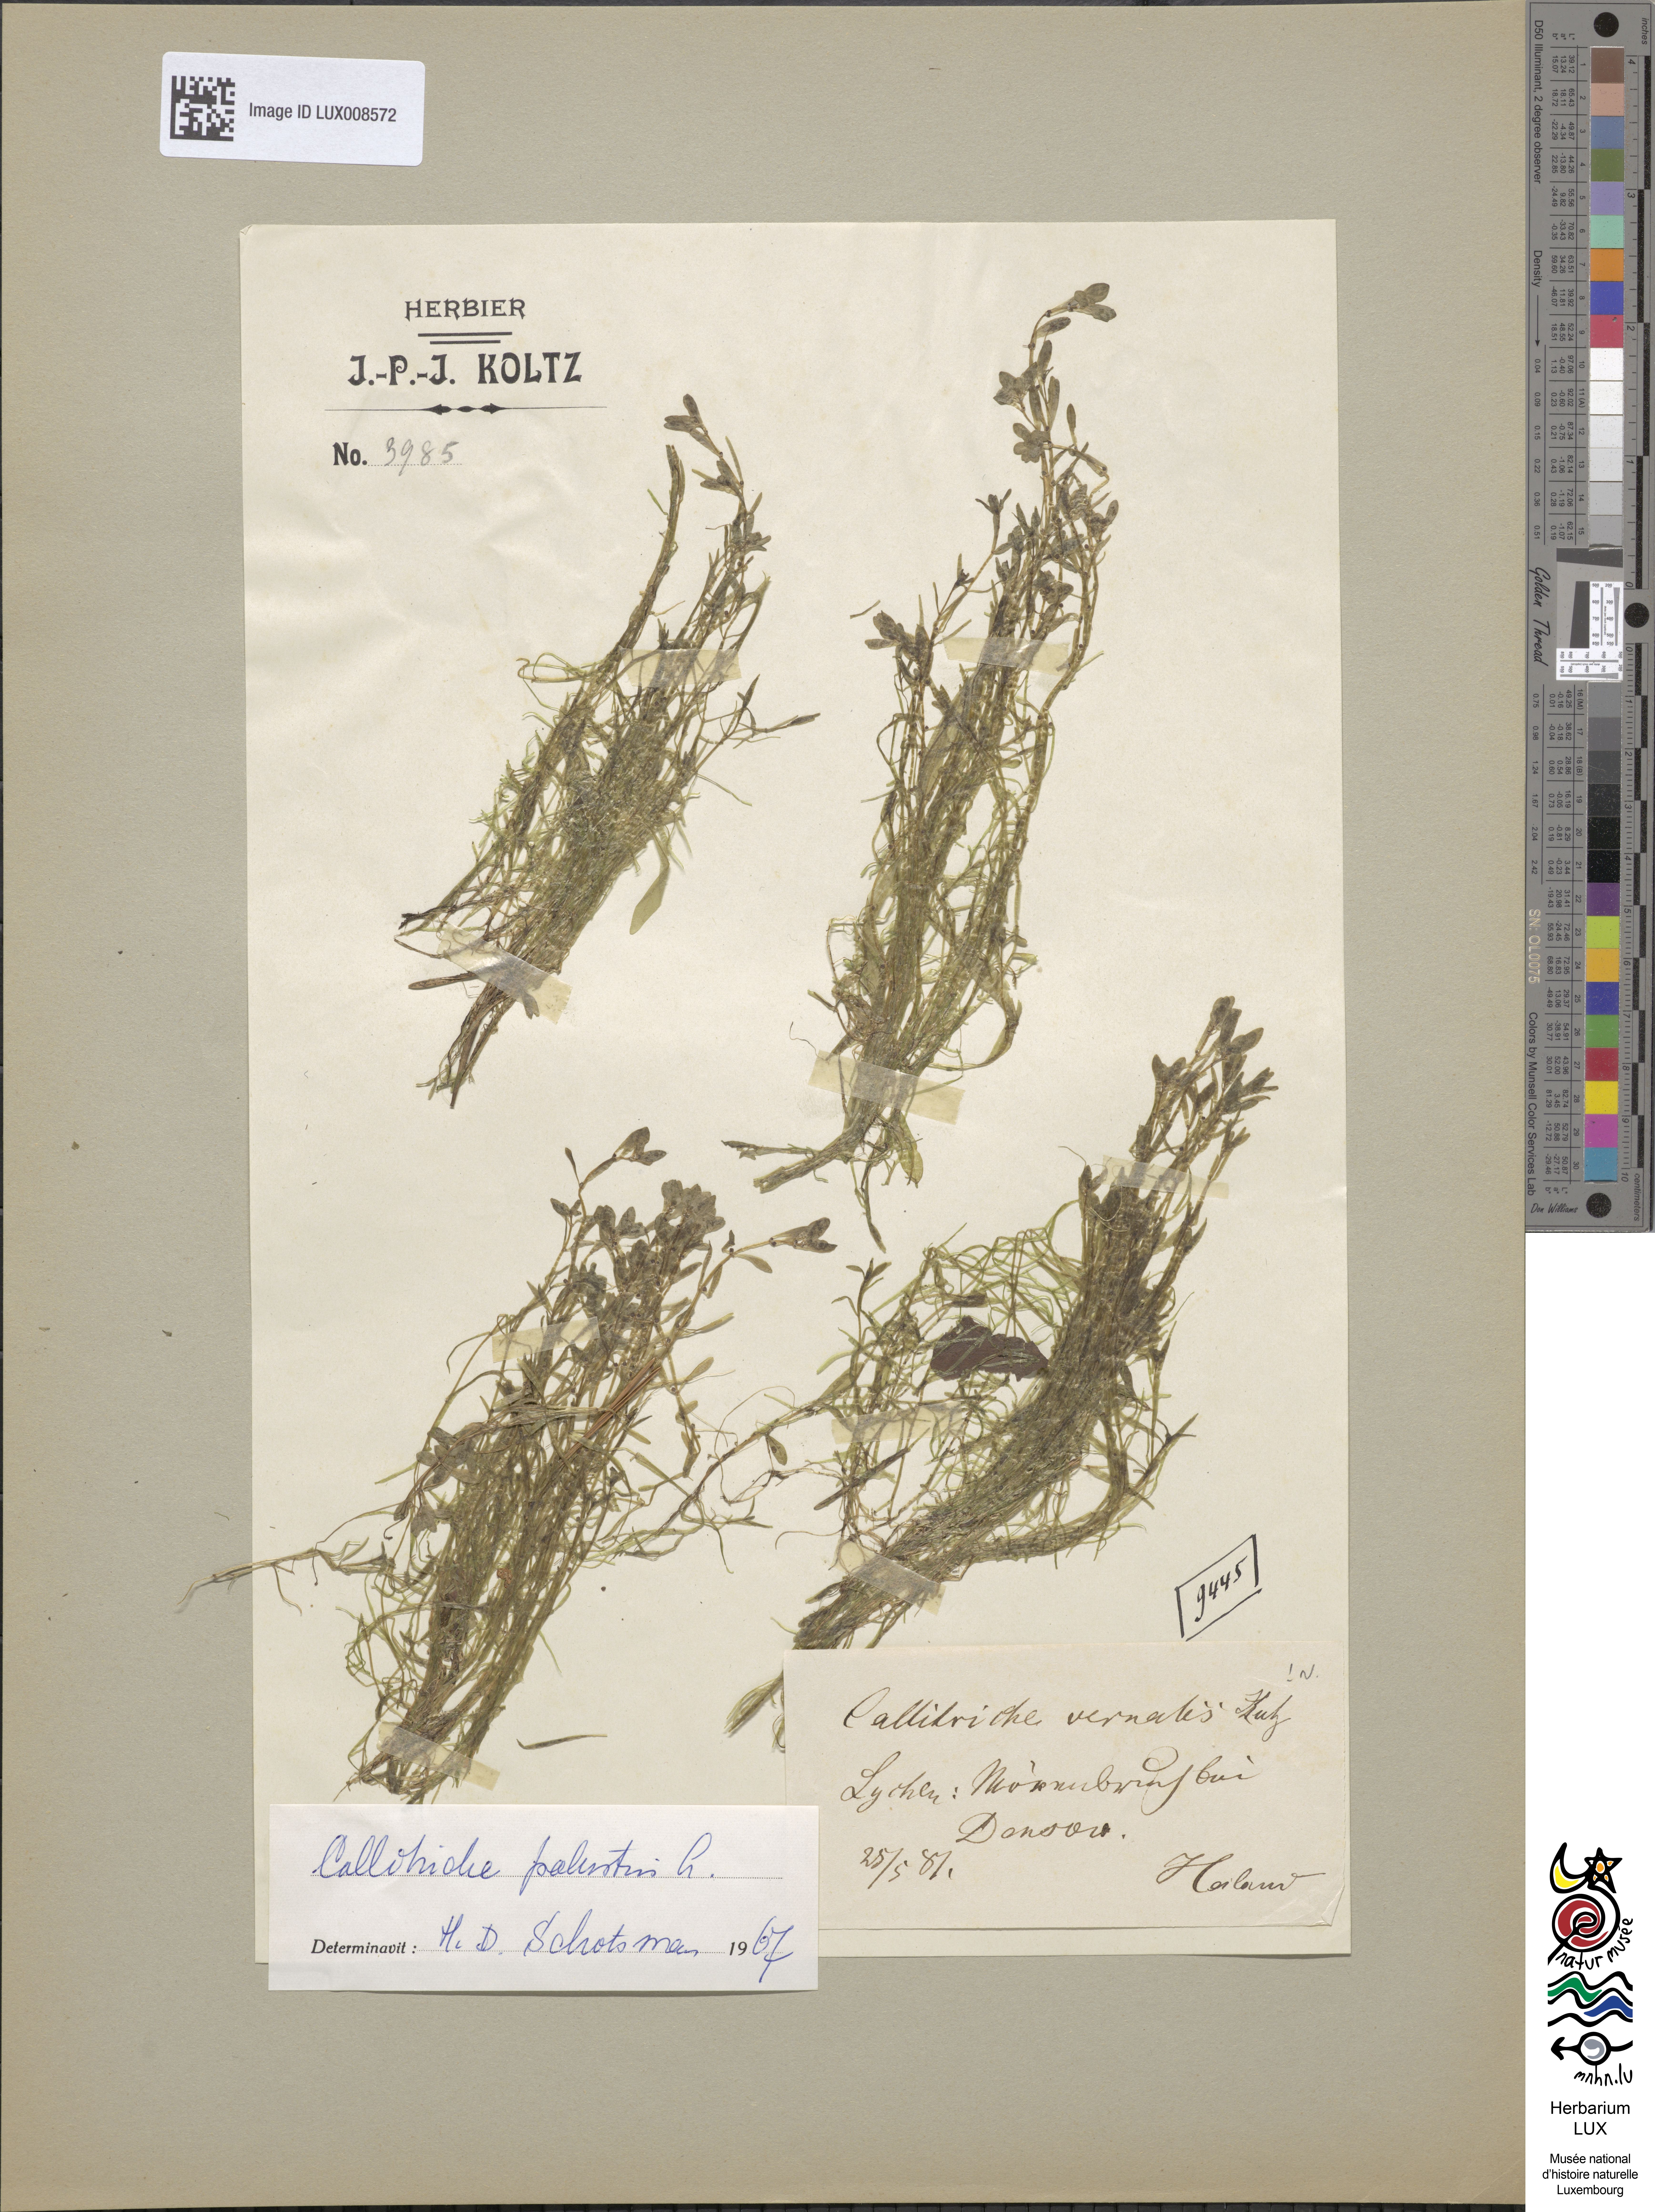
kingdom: Plantae
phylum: Tracheophyta
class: Magnoliopsida
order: Lamiales
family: Plantaginaceae
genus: Callitriche
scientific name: Callitriche palustris
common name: Spring water-starwort
